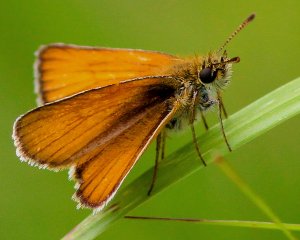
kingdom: Animalia
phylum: Arthropoda
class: Insecta
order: Lepidoptera
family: Hesperiidae
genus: Thymelicus
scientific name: Thymelicus lineola
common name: European Skipper
